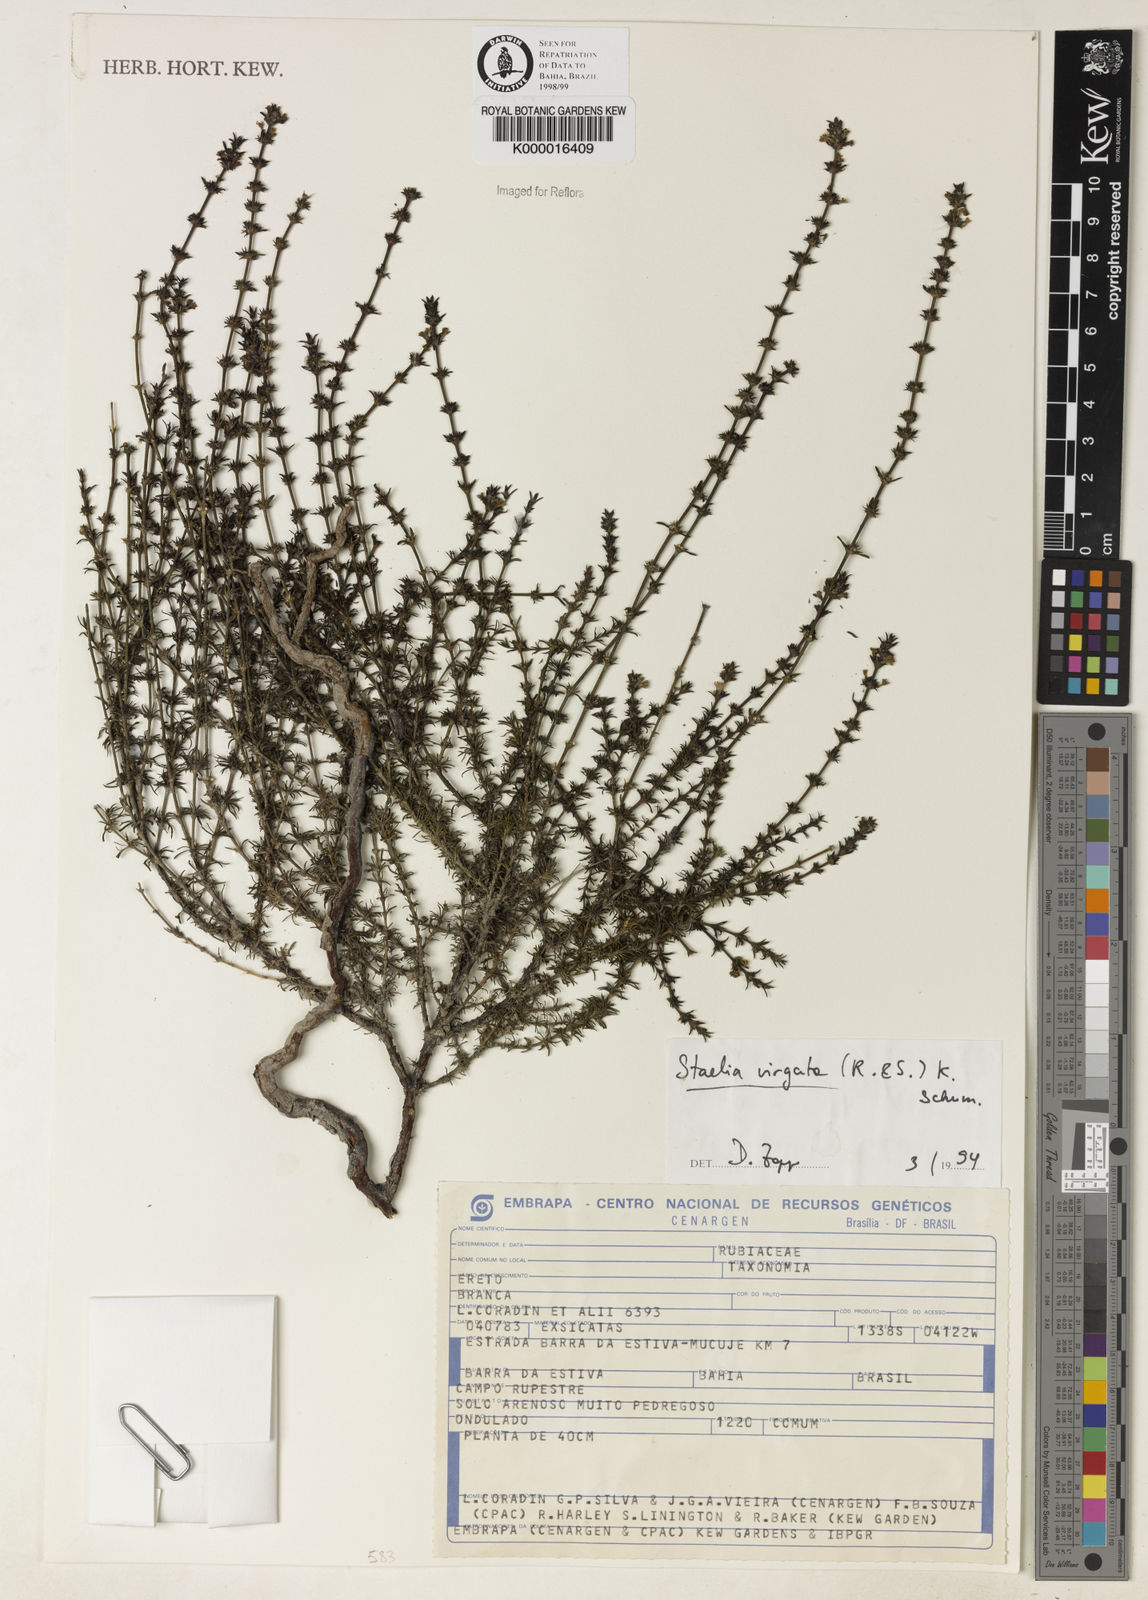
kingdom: Plantae
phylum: Tracheophyta
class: Magnoliopsida
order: Gentianales
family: Rubiaceae
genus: Staelia
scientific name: Staelia virgata
